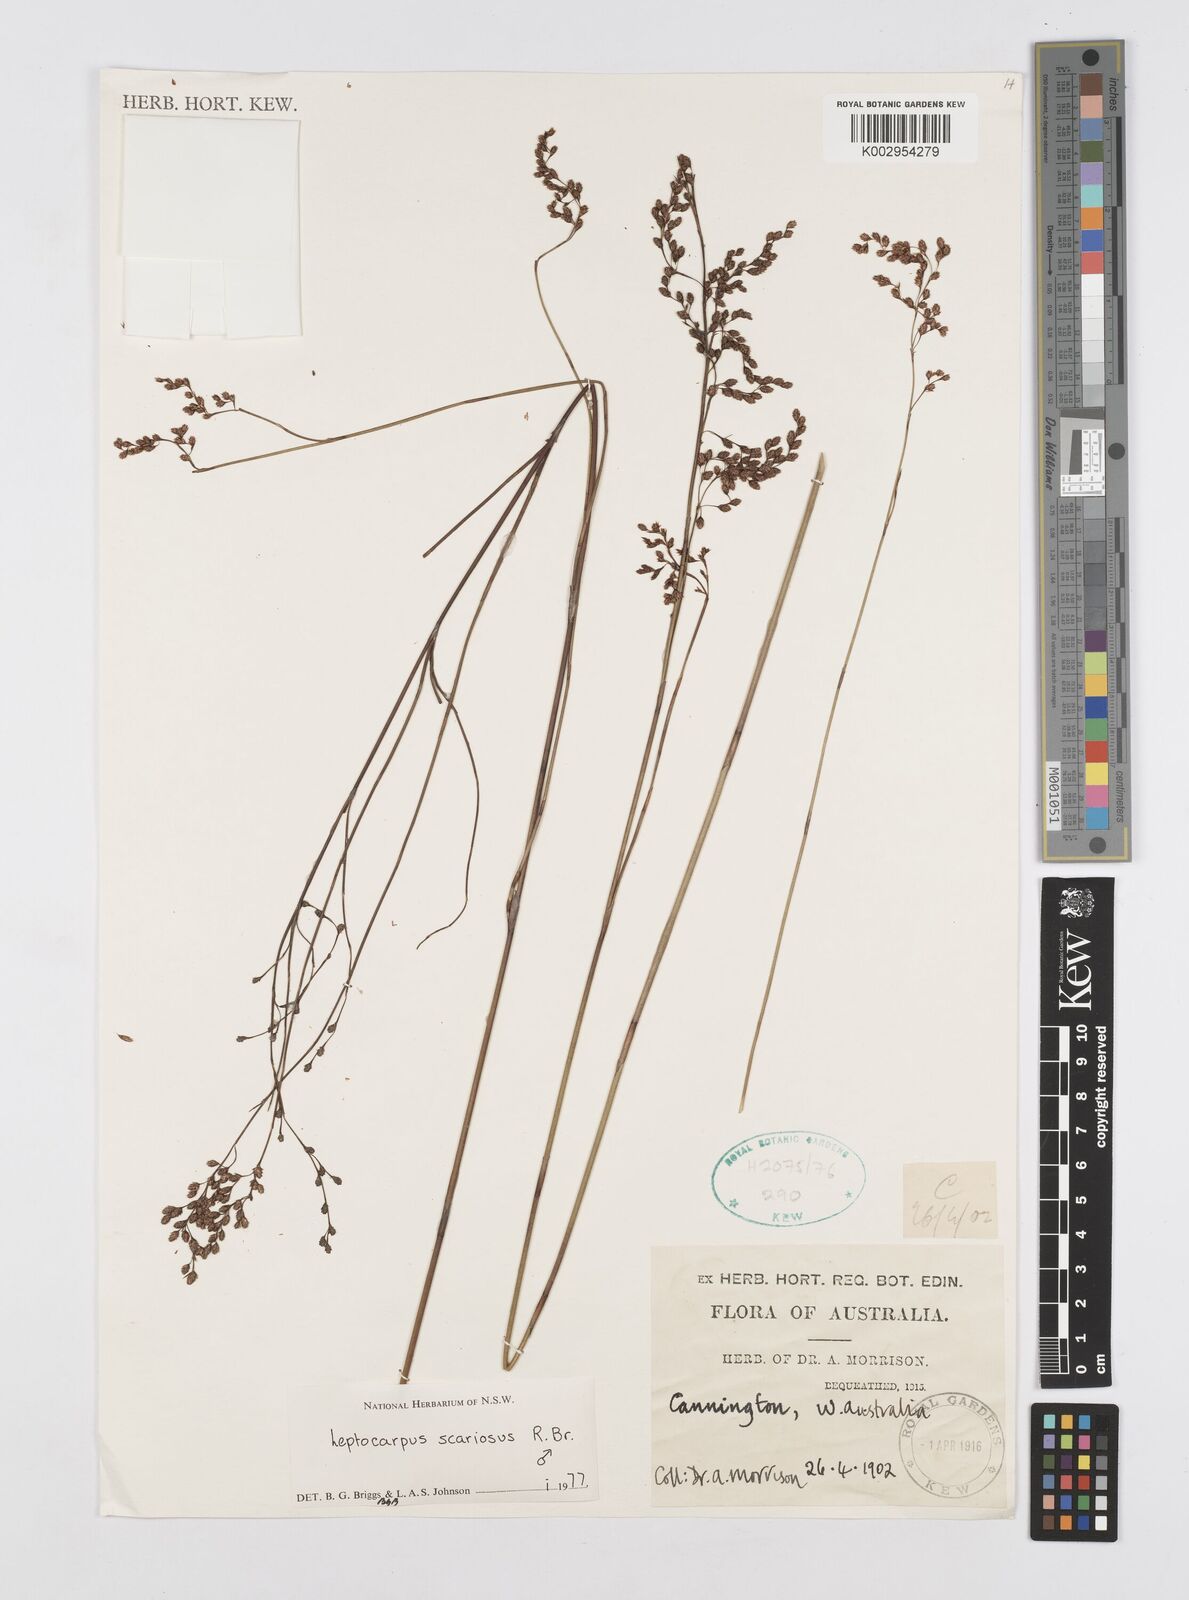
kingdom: Plantae
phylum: Tracheophyta
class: Liliopsida
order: Poales
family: Restionaceae
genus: Leptocarpus
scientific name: Leptocarpus scariosus
